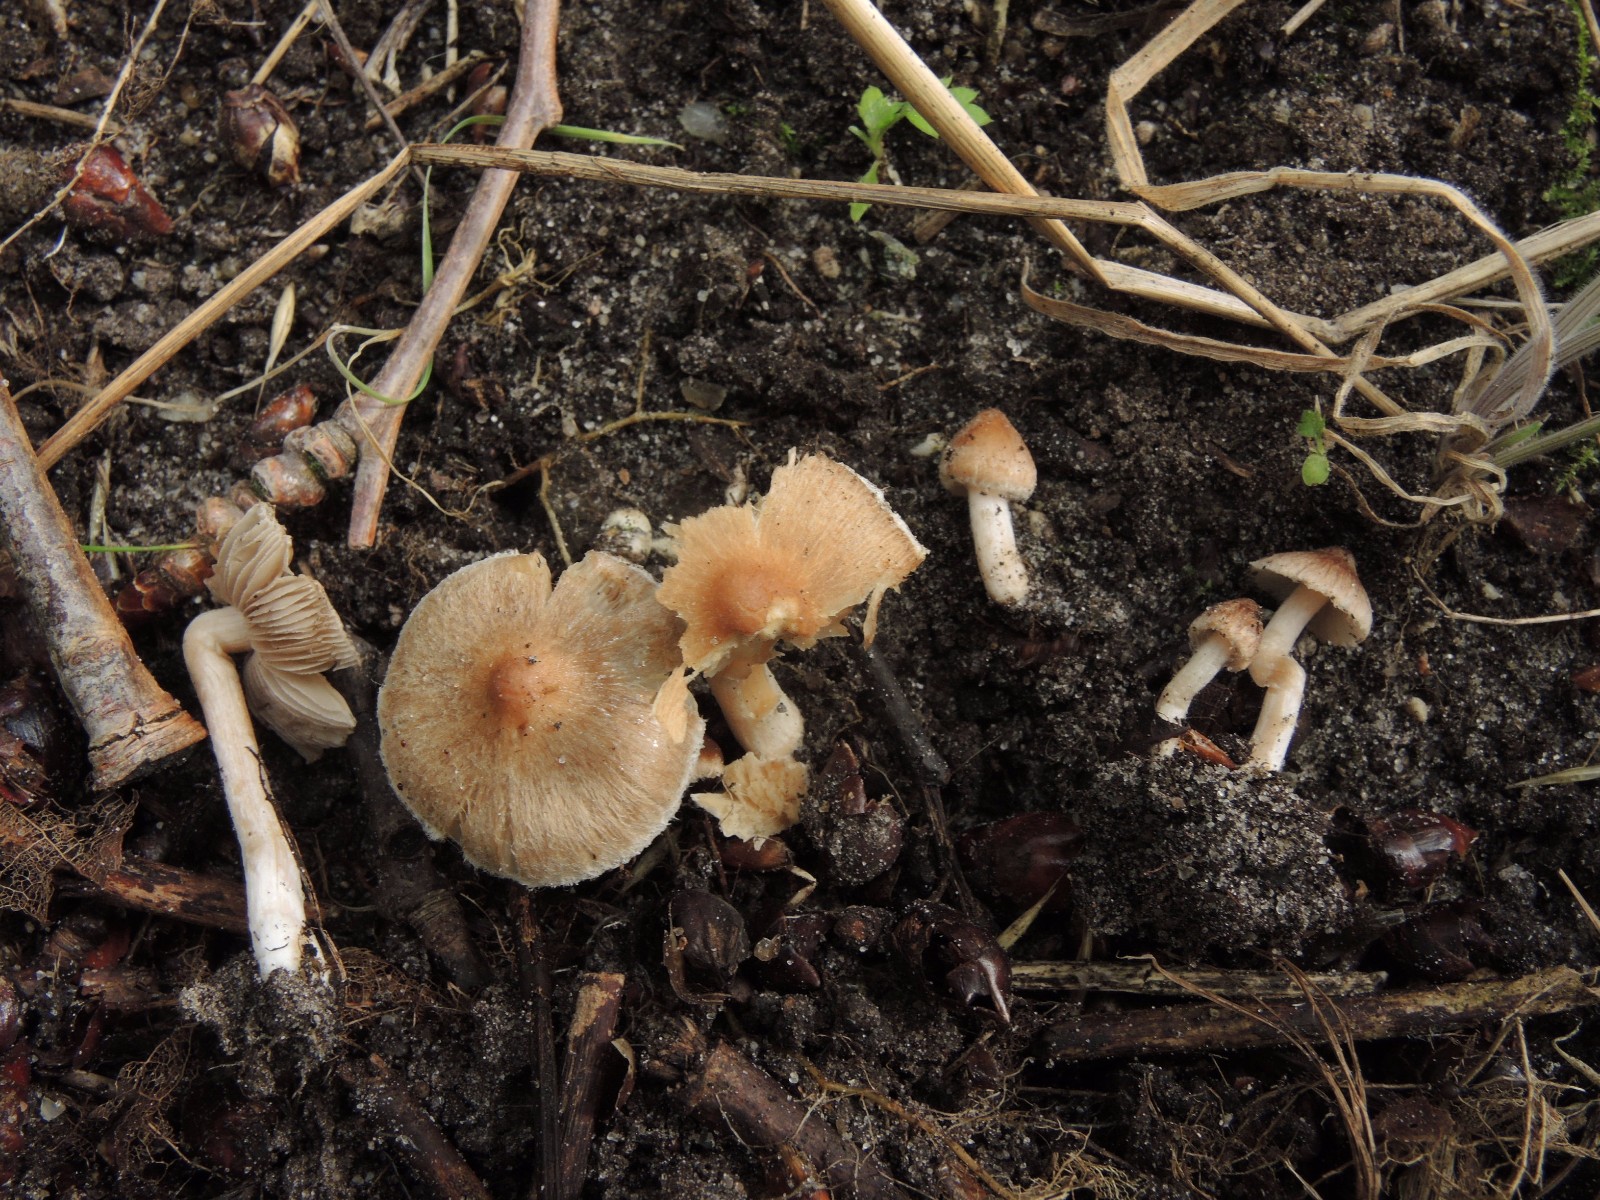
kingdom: Fungi
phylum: Basidiomycota
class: Agaricomycetes
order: Agaricales
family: Inocybaceae
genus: Inocybe
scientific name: Inocybe pseudodestricta
